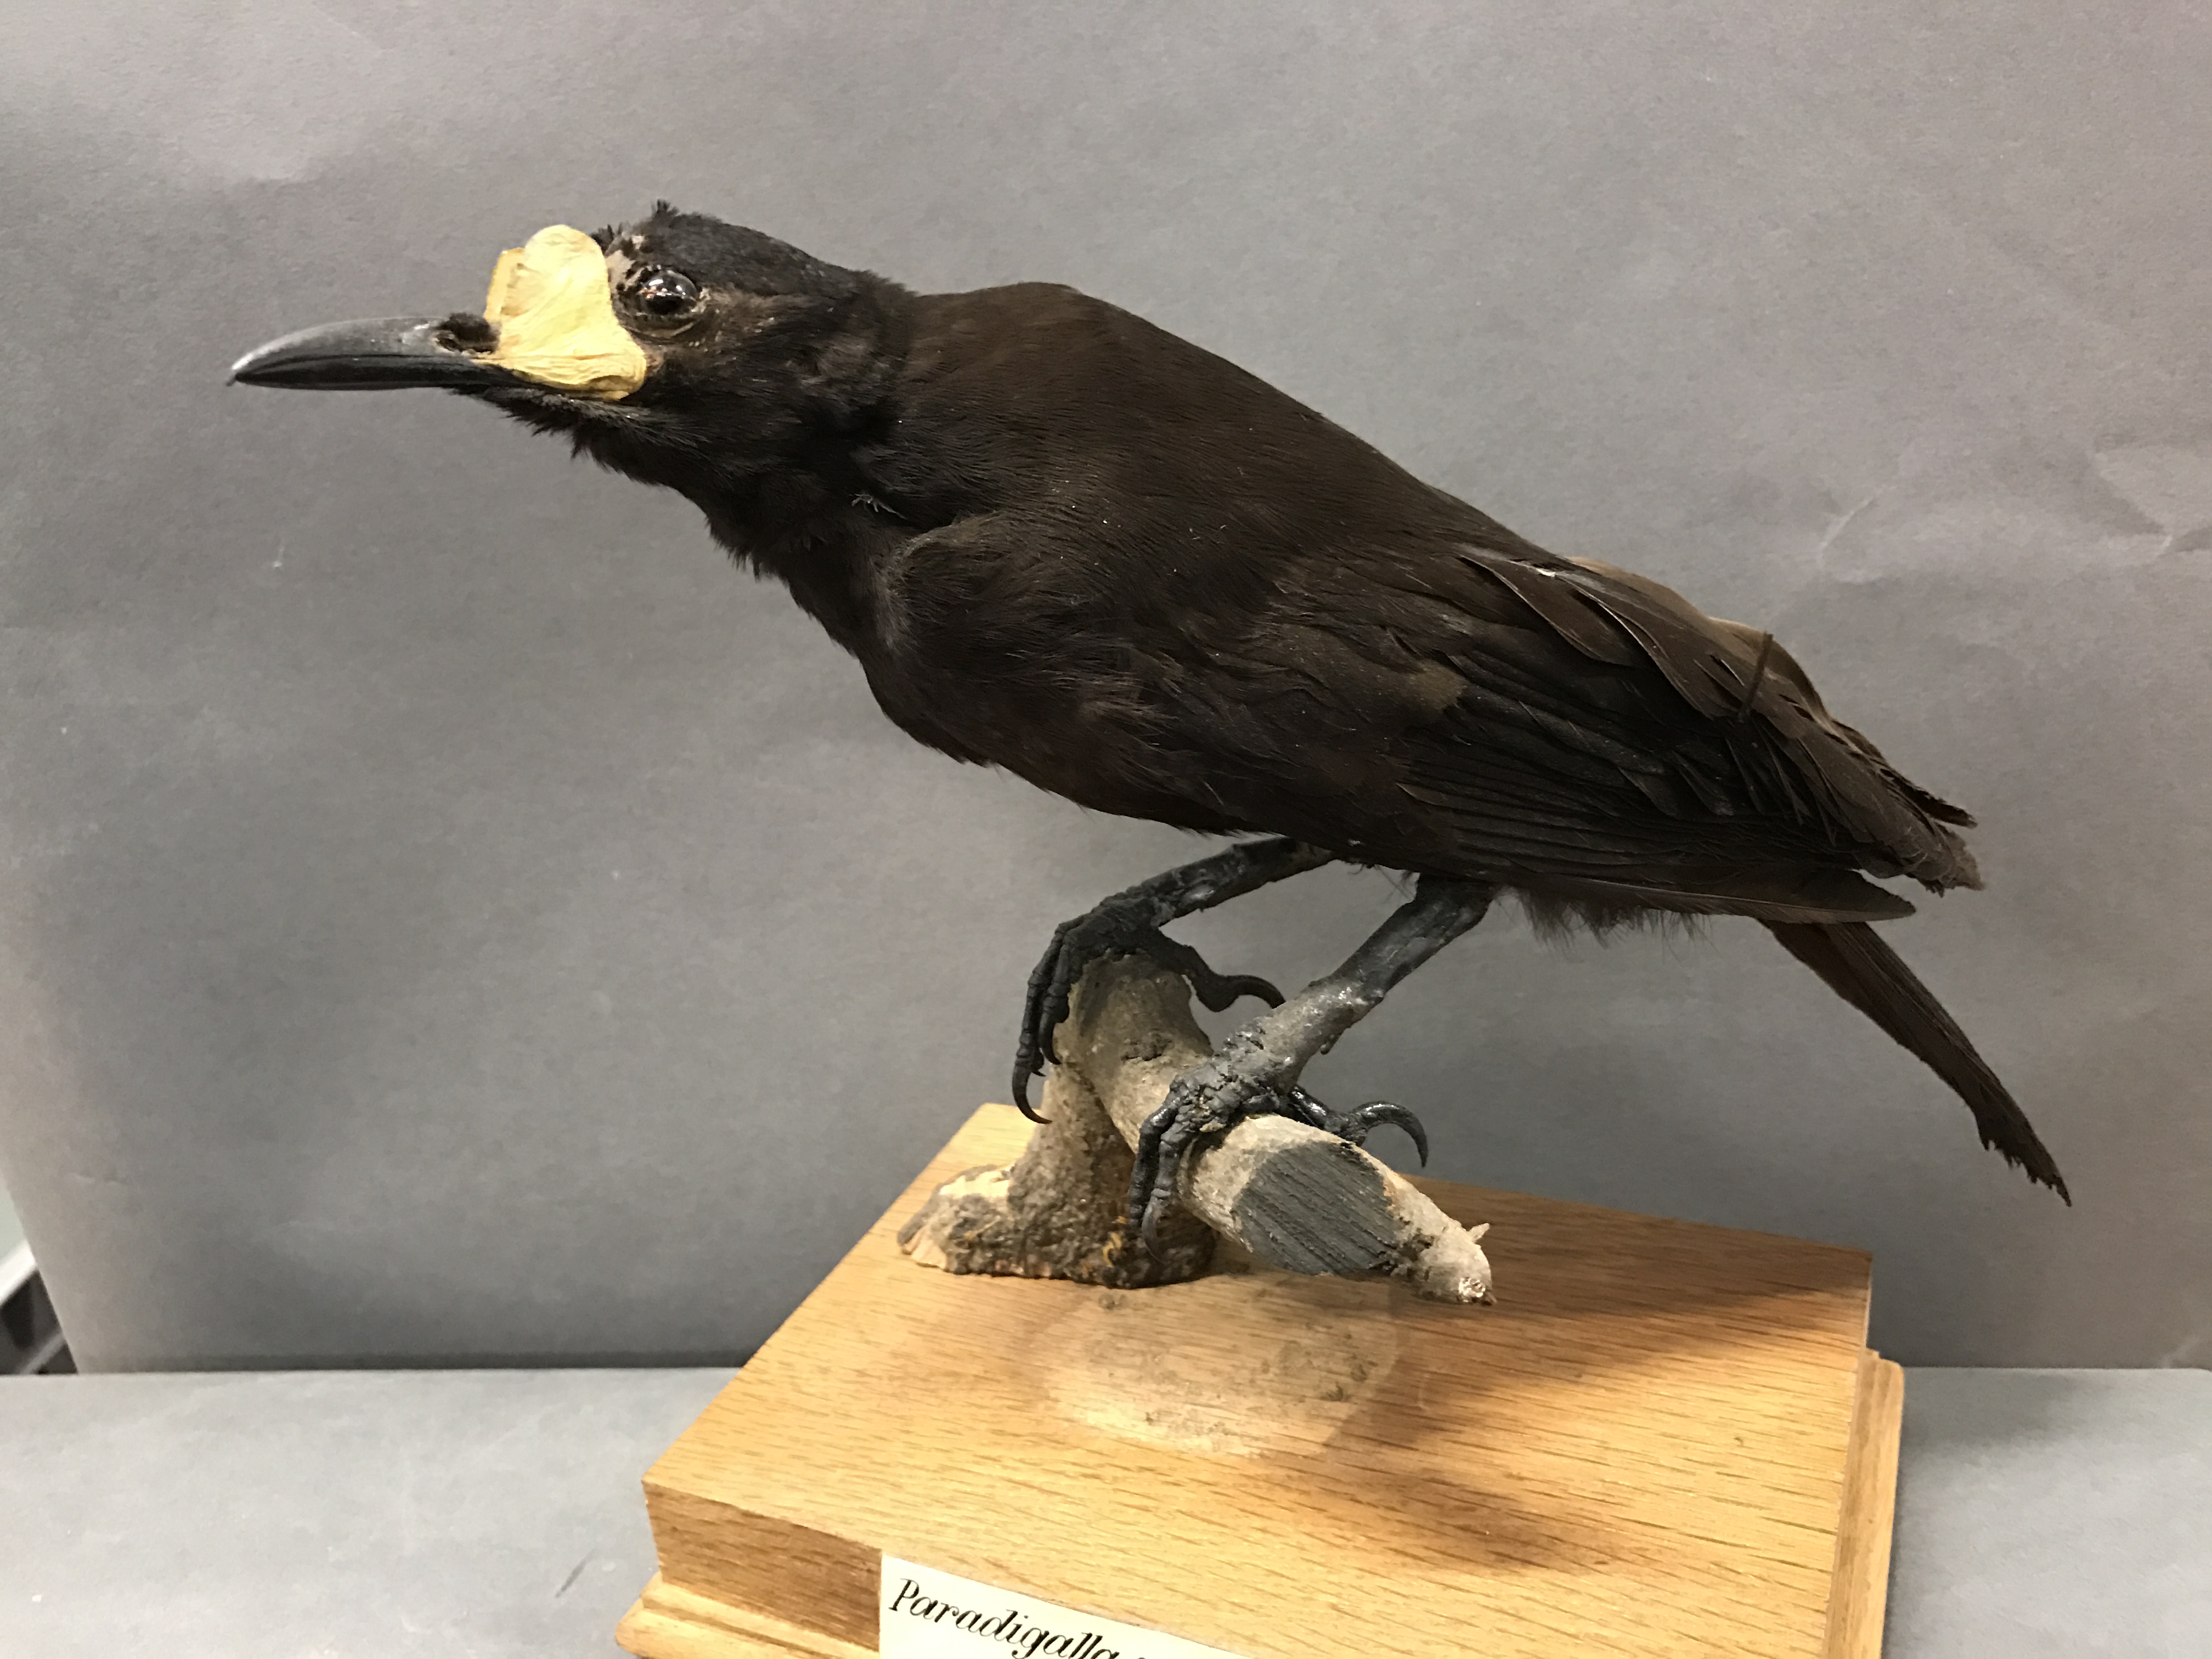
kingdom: Animalia
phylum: Chordata
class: Aves
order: Passeriformes
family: Paradisaeidae
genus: Paradigalla
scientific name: Paradigalla carunculata
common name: Long-tailed paradigalla
